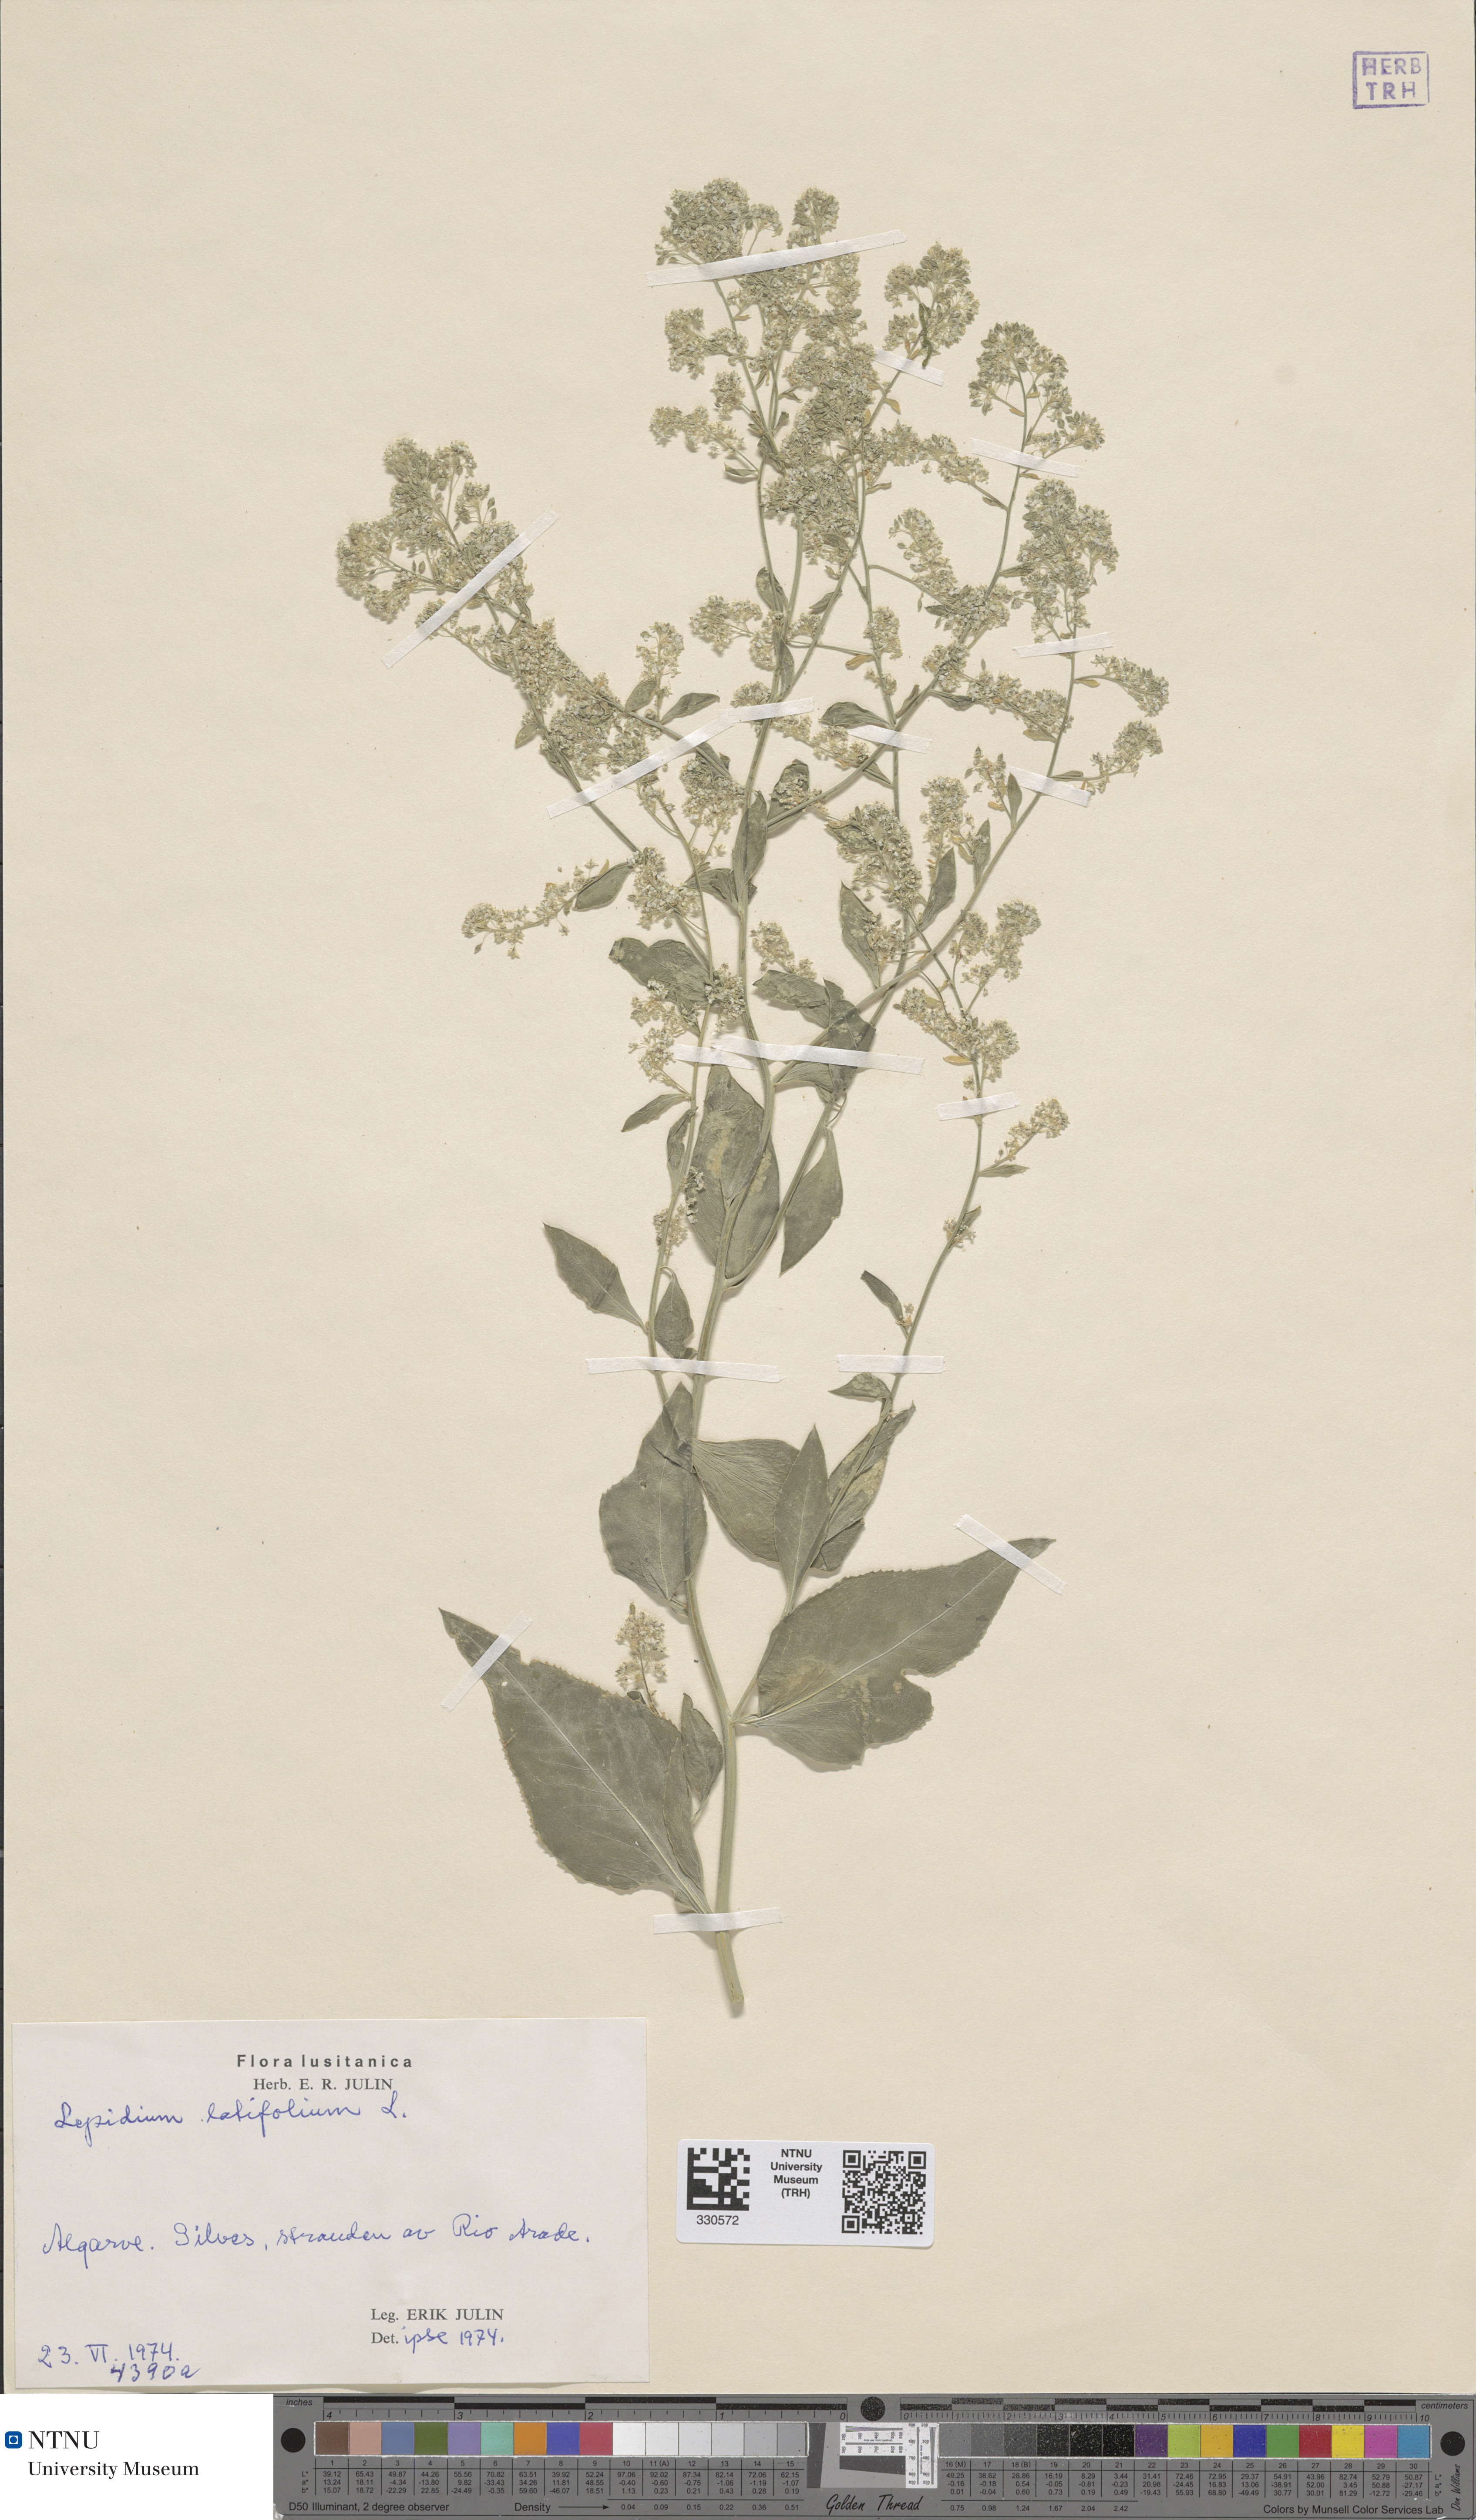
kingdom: Plantae
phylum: Tracheophyta
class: Magnoliopsida
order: Brassicales
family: Brassicaceae
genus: Lepidium
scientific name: Lepidium latifolium
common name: Dittander
